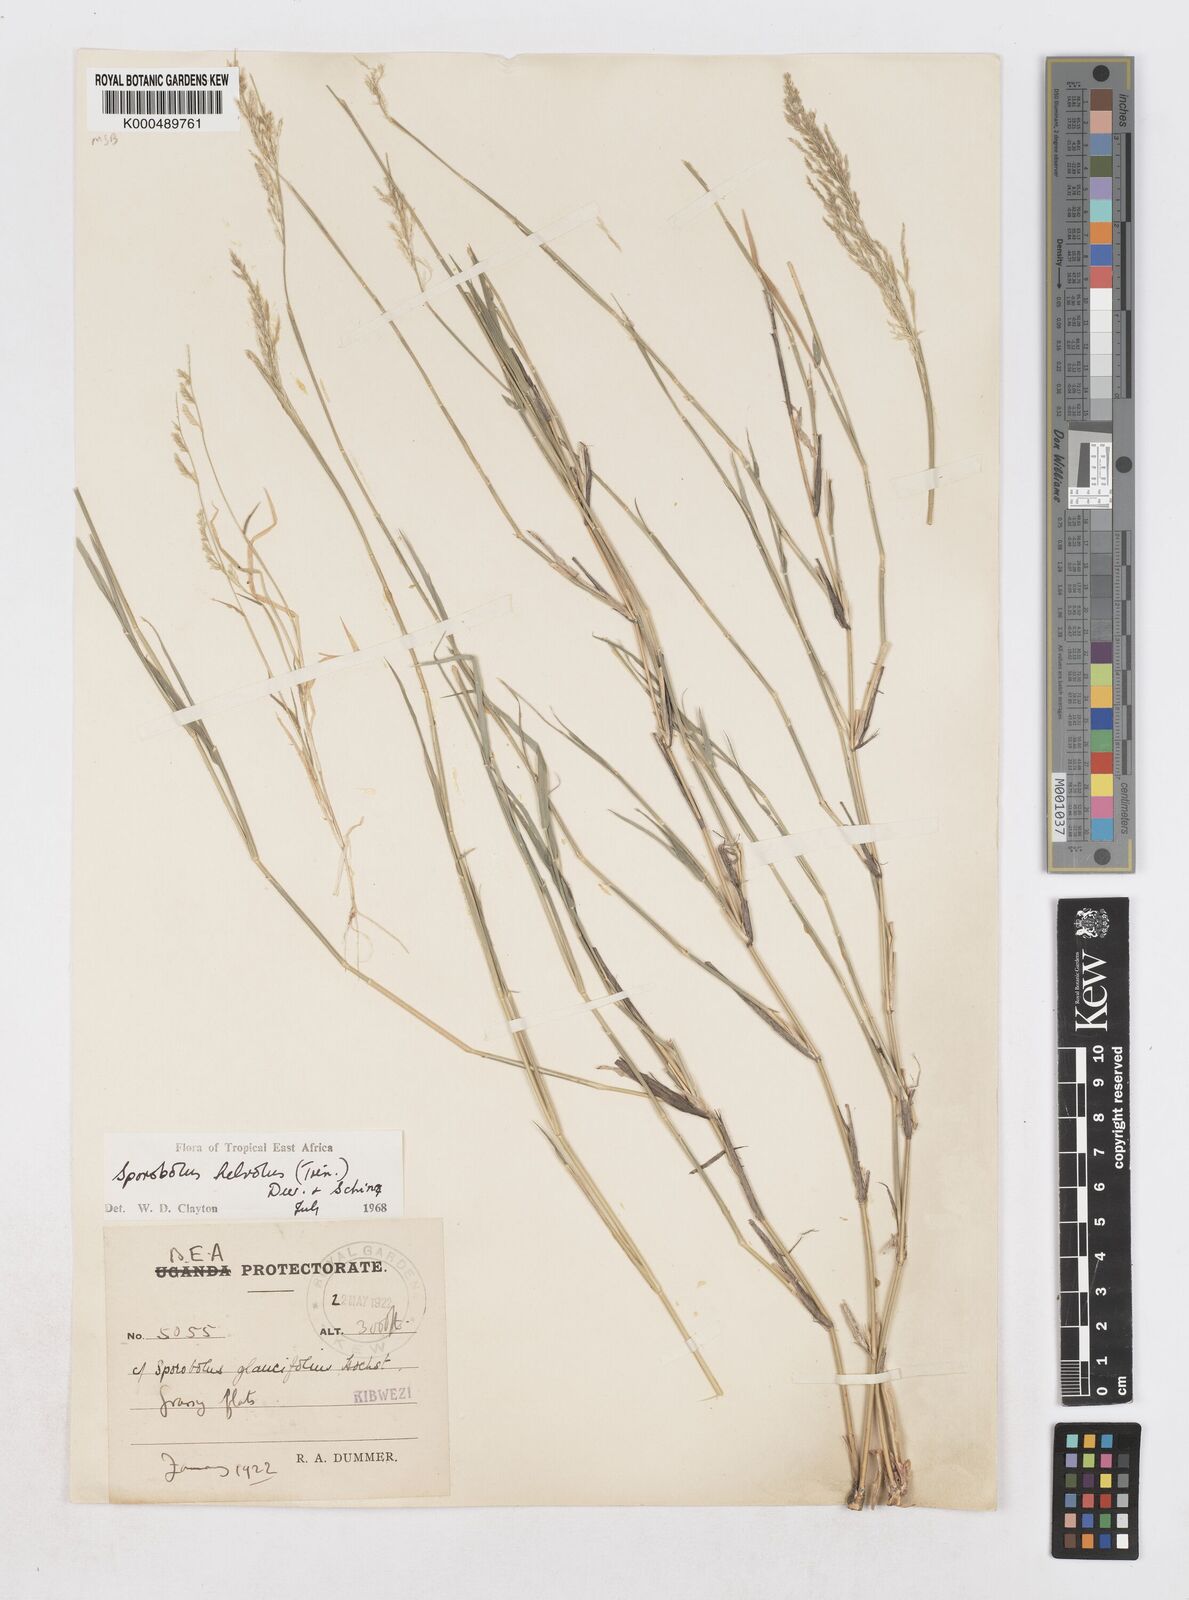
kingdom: Plantae
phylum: Tracheophyta
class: Liliopsida
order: Poales
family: Poaceae
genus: Sporobolus
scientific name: Sporobolus helvolus
